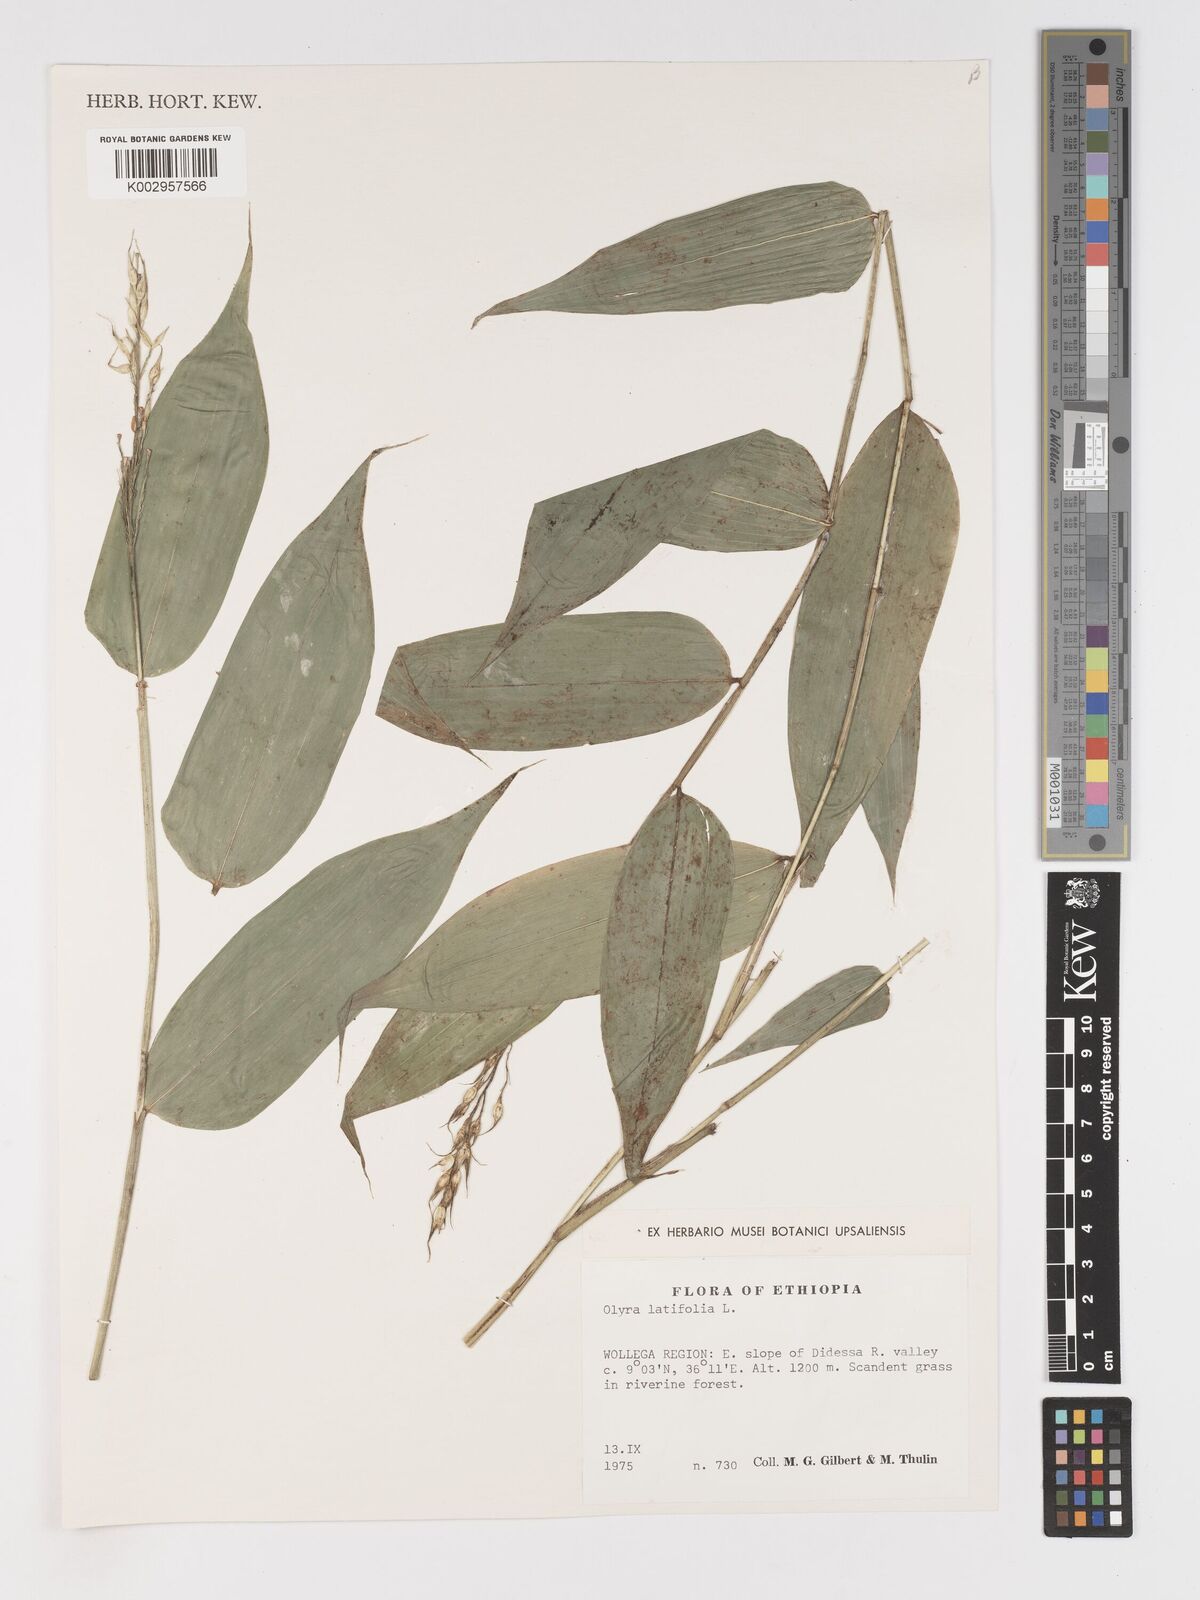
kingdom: Plantae
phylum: Tracheophyta
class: Liliopsida
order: Poales
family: Poaceae
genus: Olyra
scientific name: Olyra latifolia
